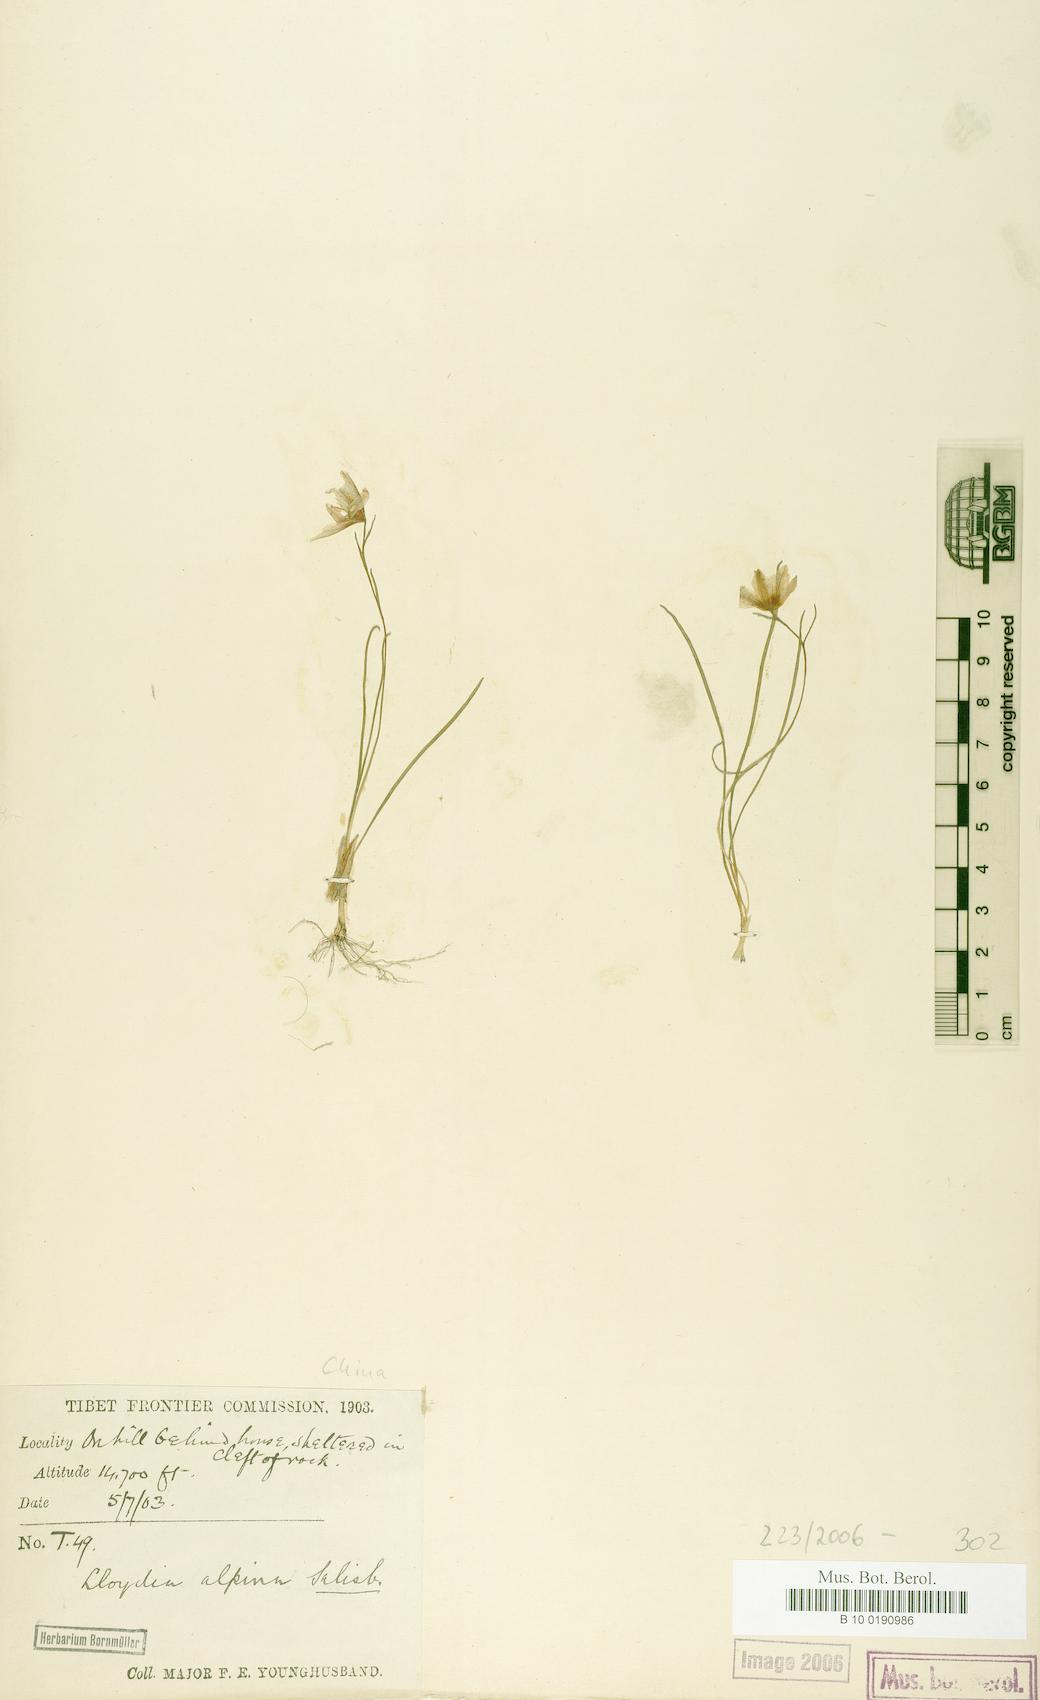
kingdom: Plantae
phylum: Tracheophyta
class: Liliopsida
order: Liliales
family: Liliaceae
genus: Gagea
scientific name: Gagea serotina
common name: Snowdon lily
